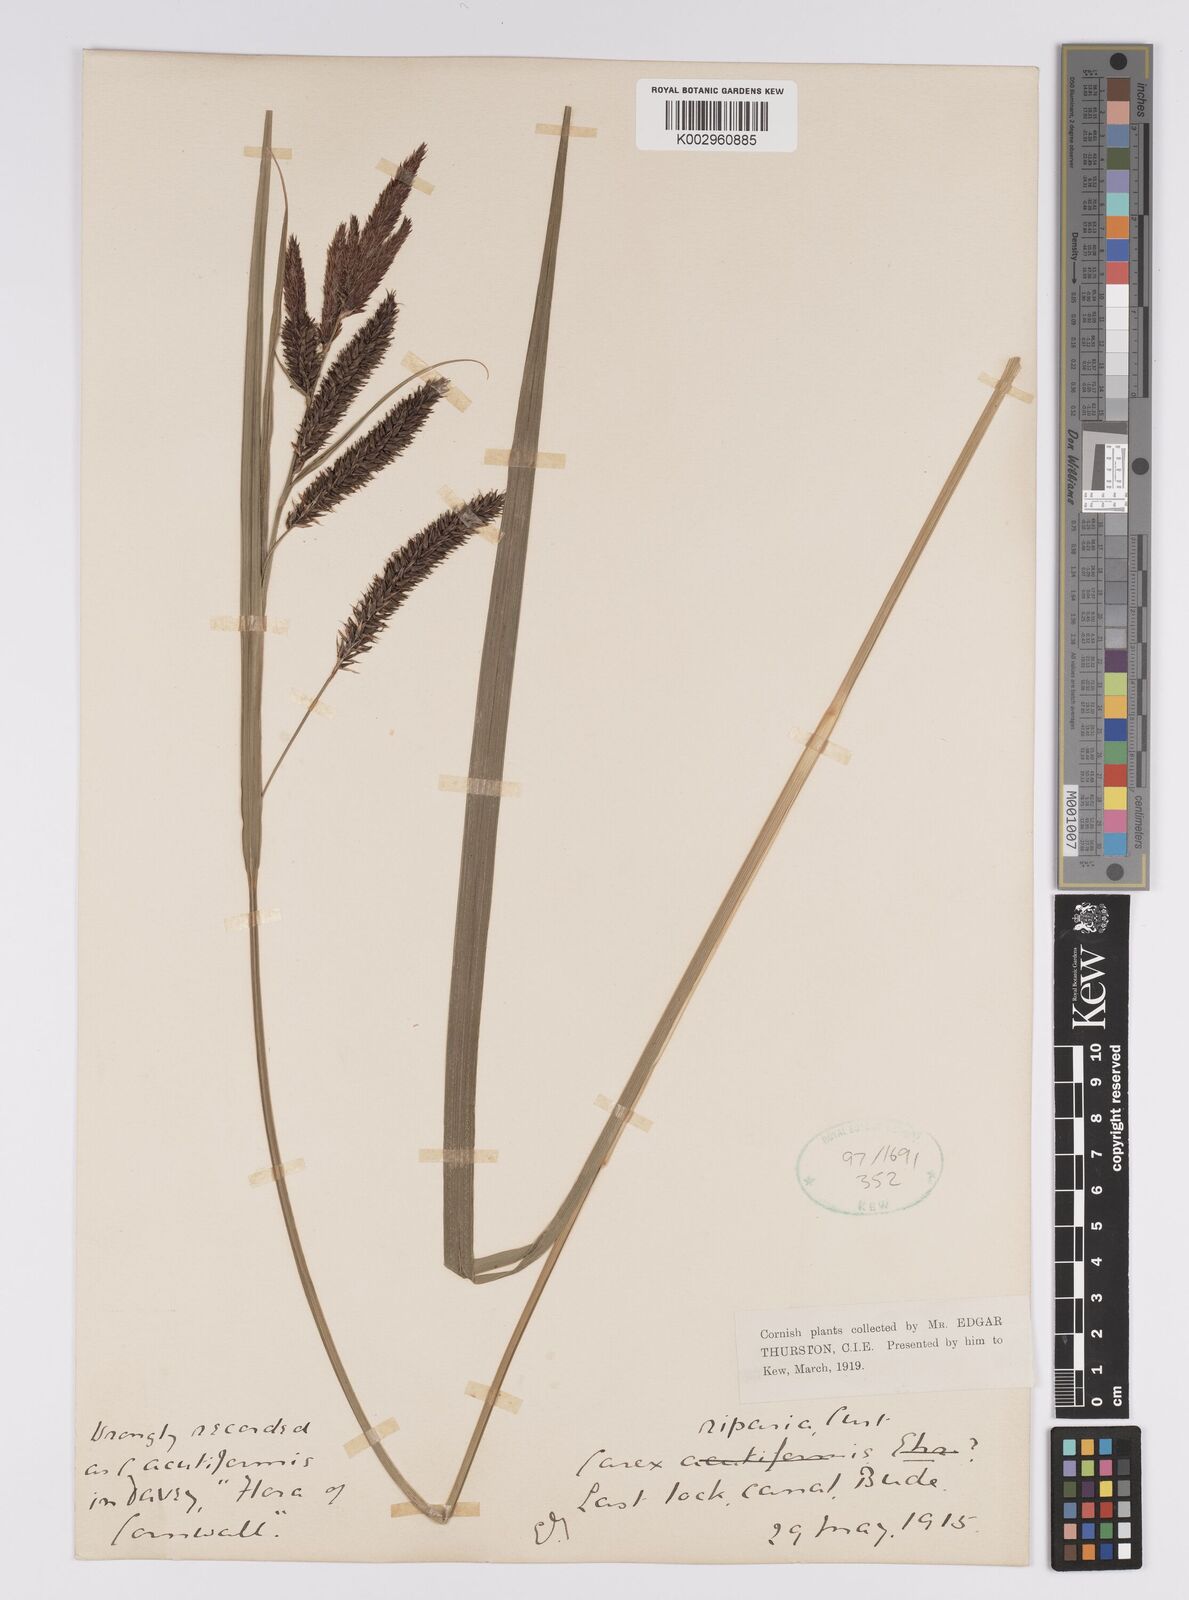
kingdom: Plantae
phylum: Tracheophyta
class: Liliopsida
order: Poales
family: Cyperaceae
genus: Carex
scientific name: Carex acutiformis
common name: Lesser pond-sedge
